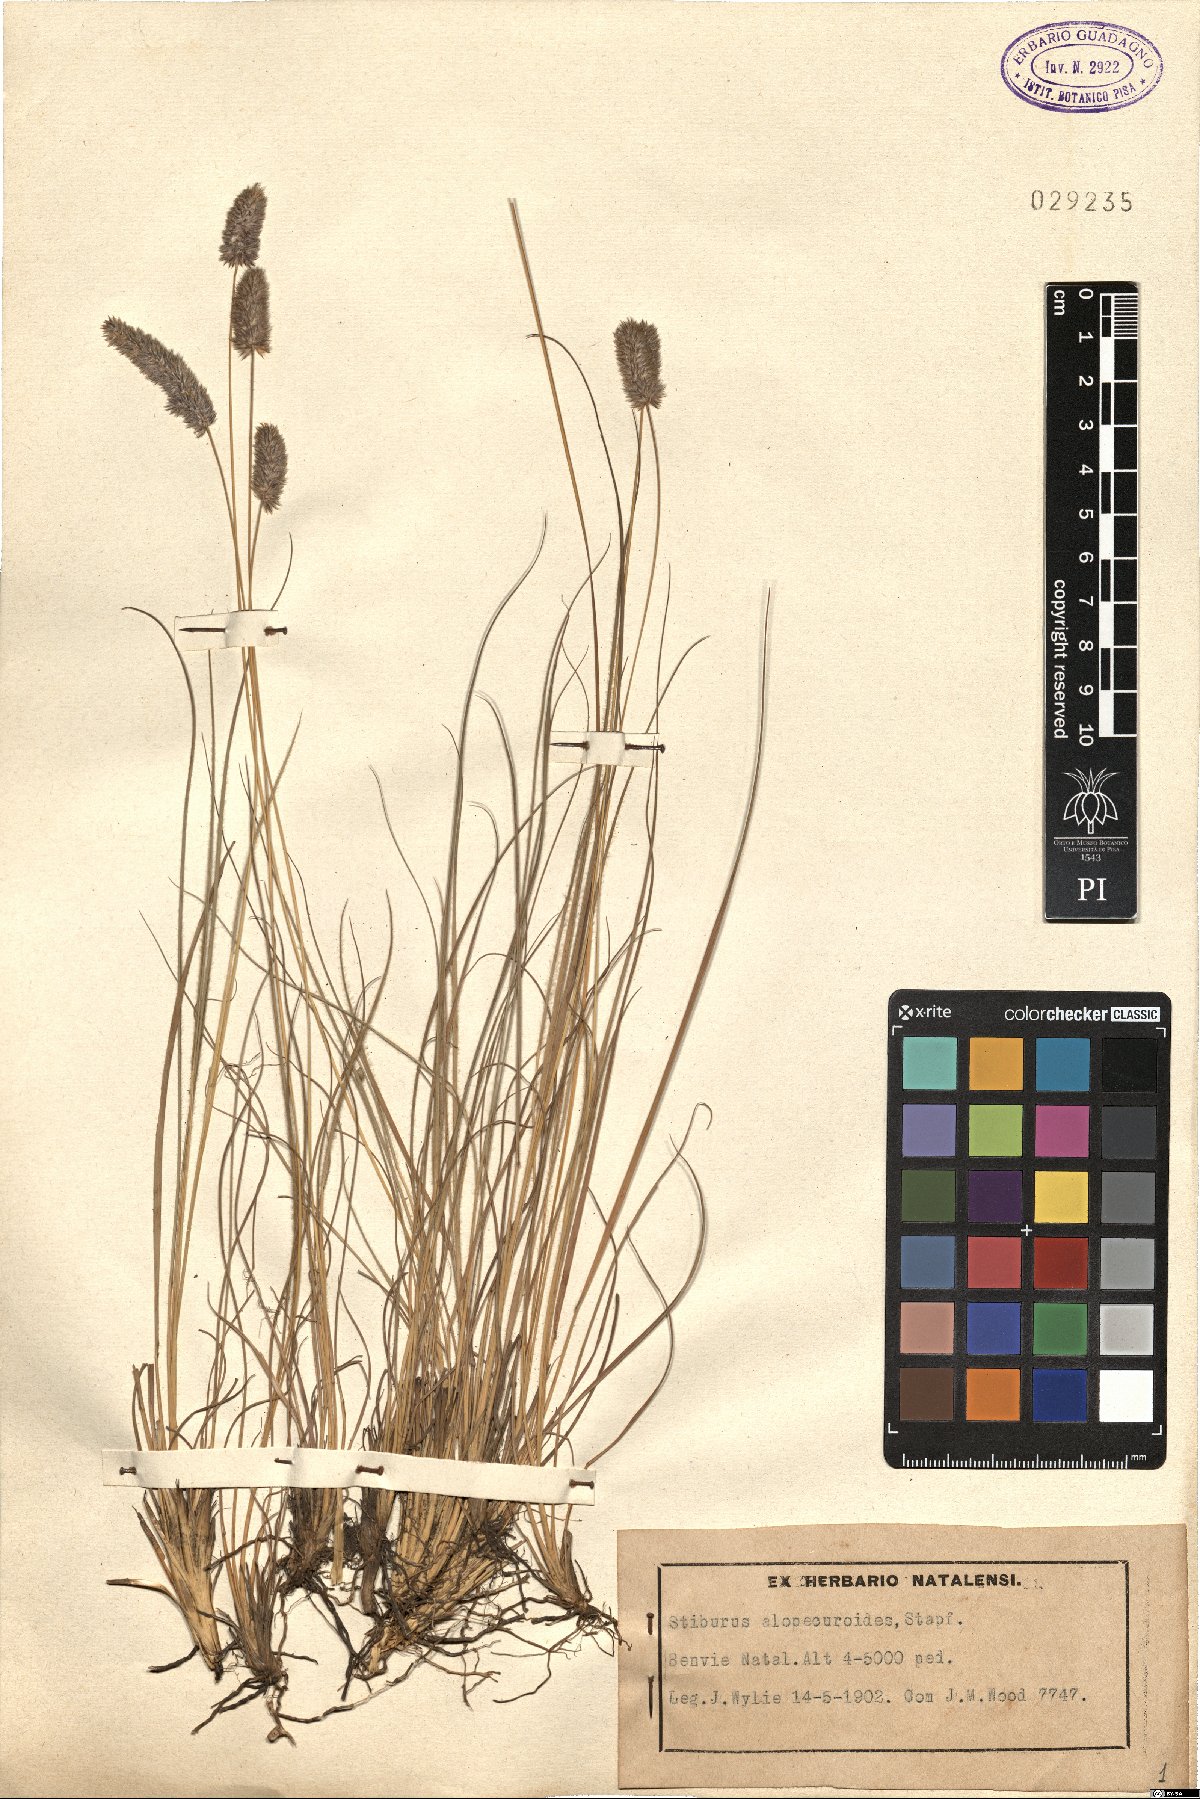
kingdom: Plantae
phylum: Tracheophyta
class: Liliopsida
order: Poales
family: Poaceae
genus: Stiburus
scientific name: Stiburus alopecuroides
